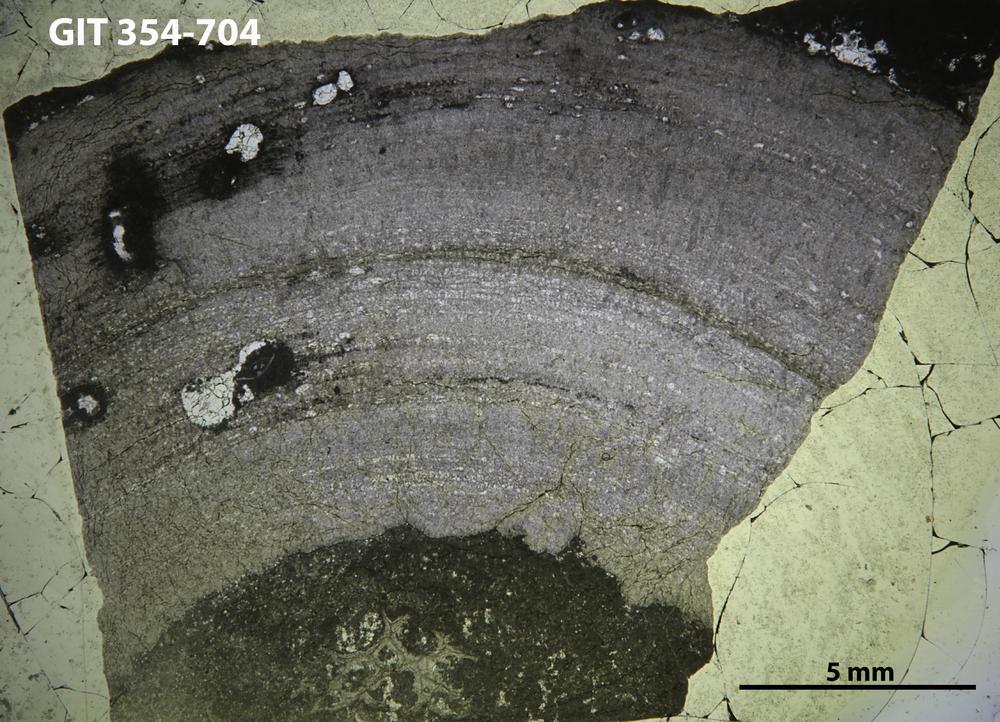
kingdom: Animalia
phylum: Porifera
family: Densastromatidae
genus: Araneosustroma
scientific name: Araneosustroma
